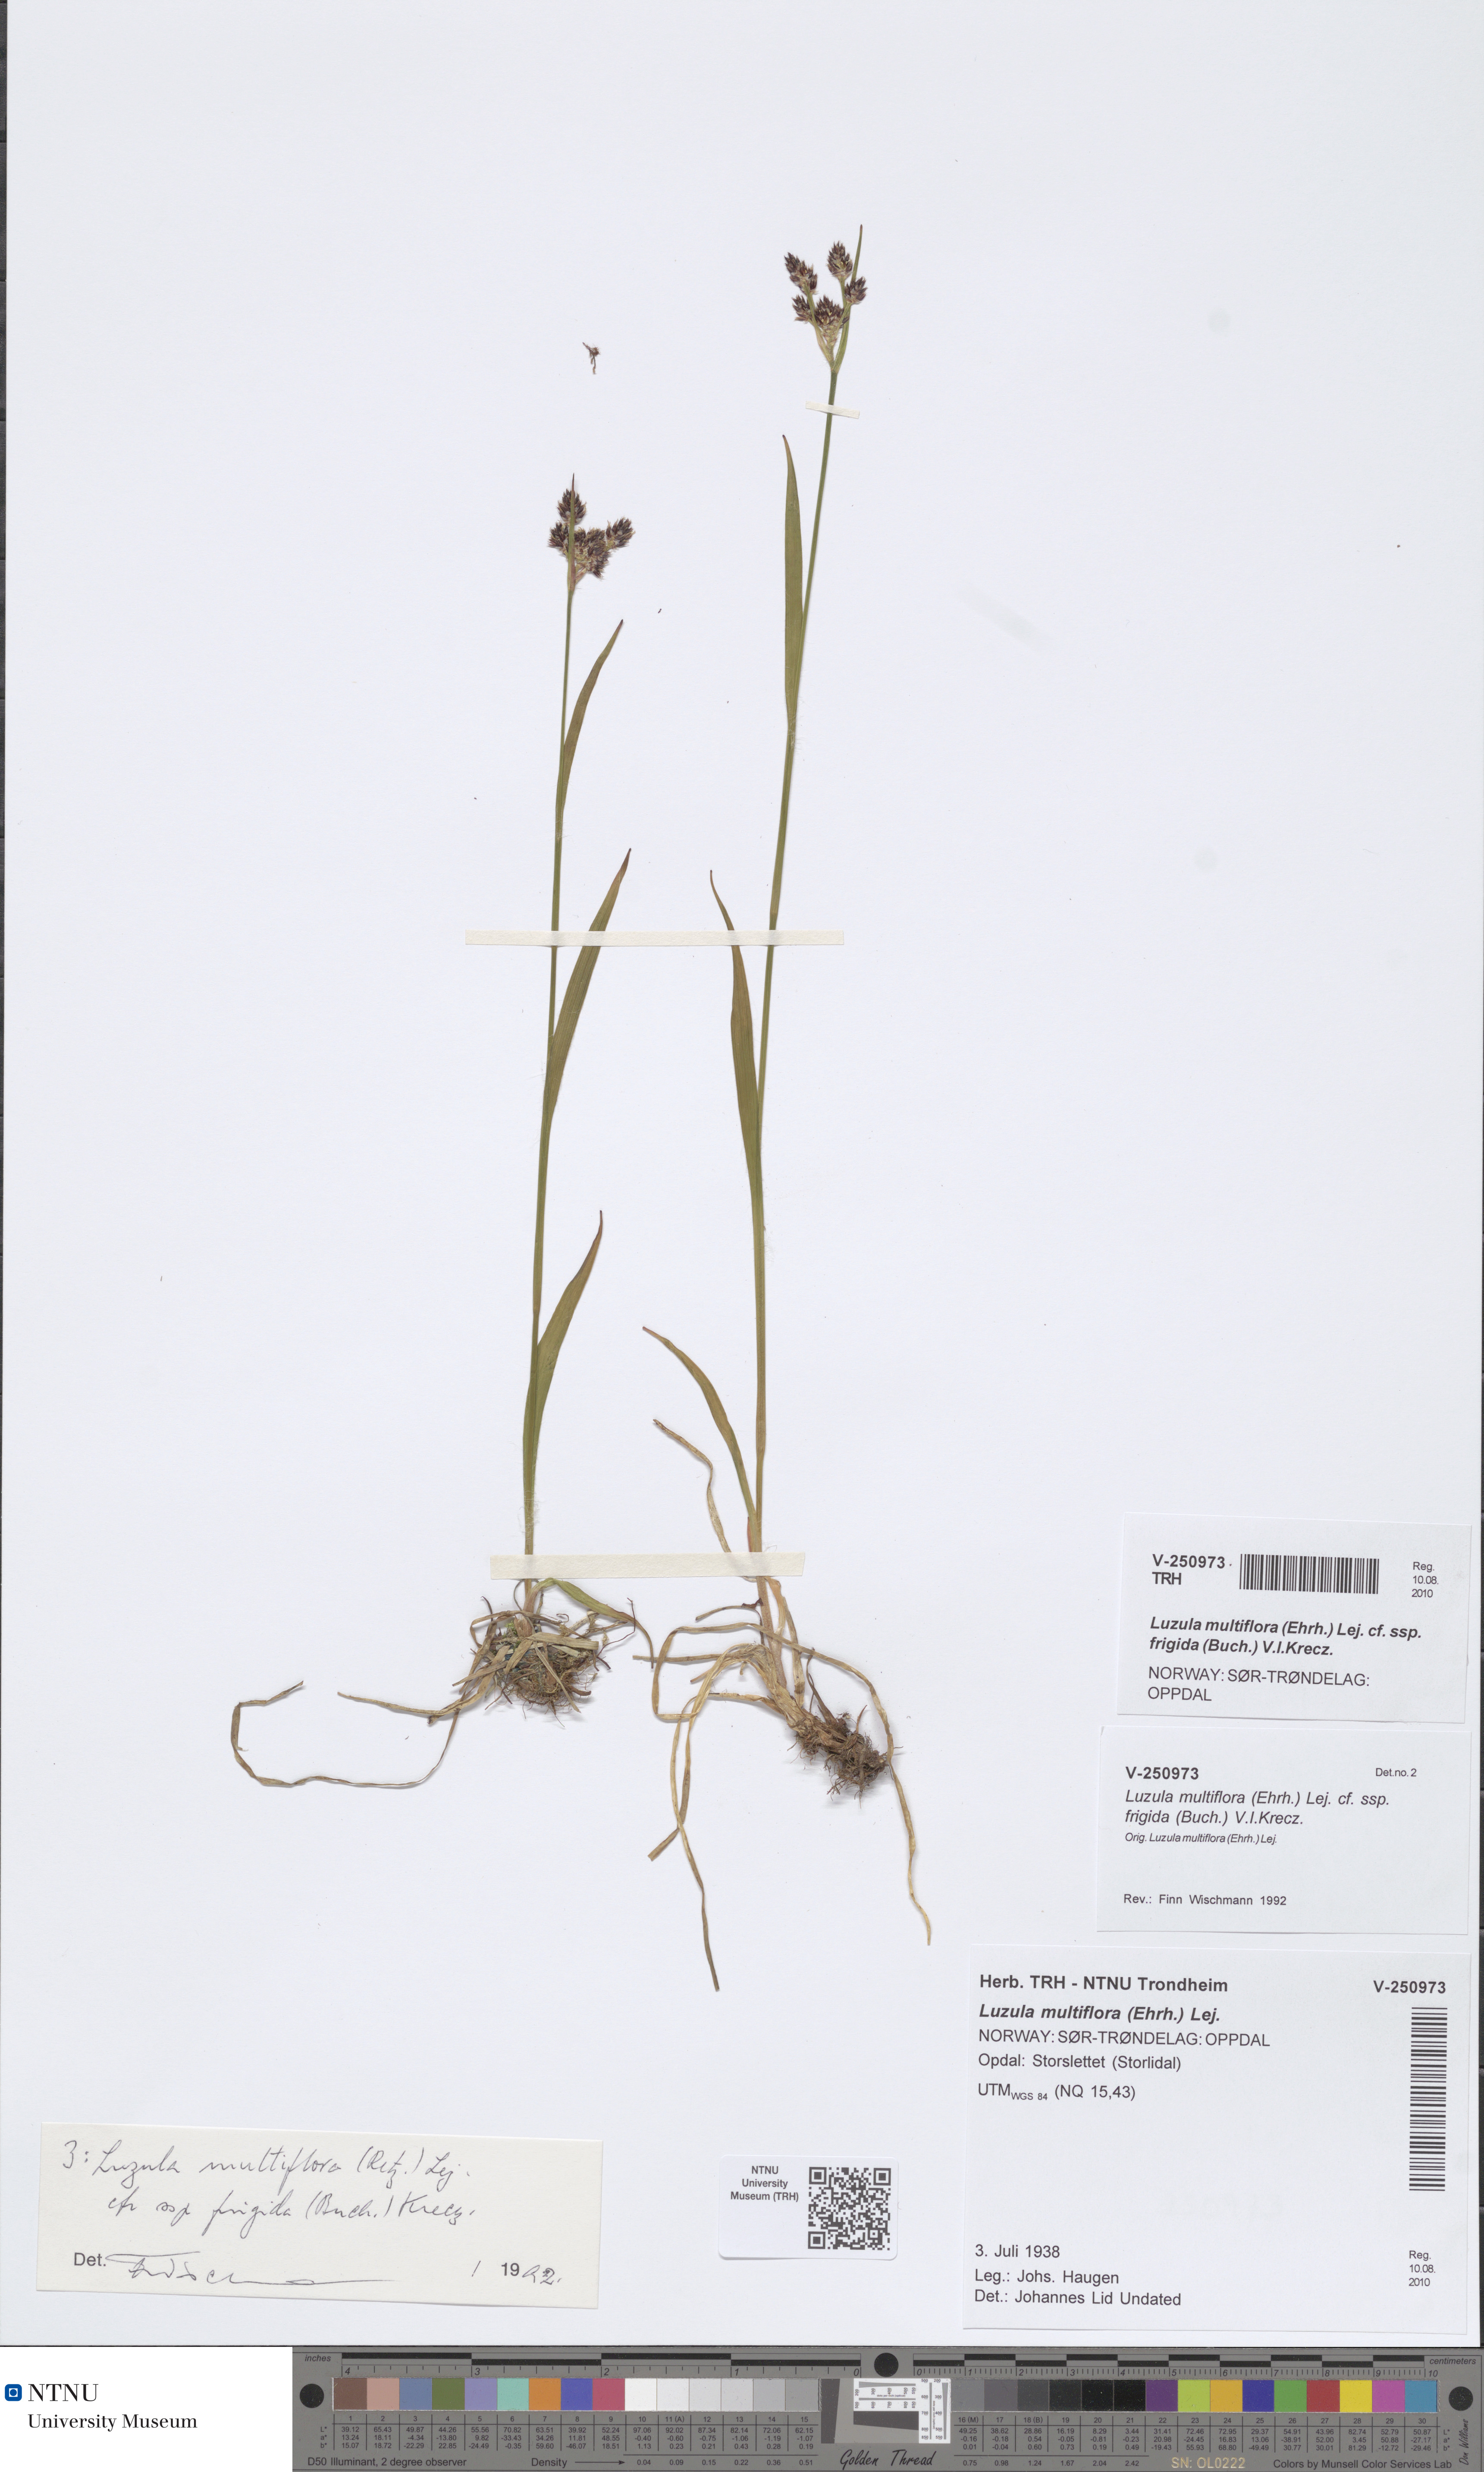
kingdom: Plantae
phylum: Tracheophyta
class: Liliopsida
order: Poales
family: Juncaceae
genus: Luzula
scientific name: Luzula multiflora
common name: Heath wood-rush
